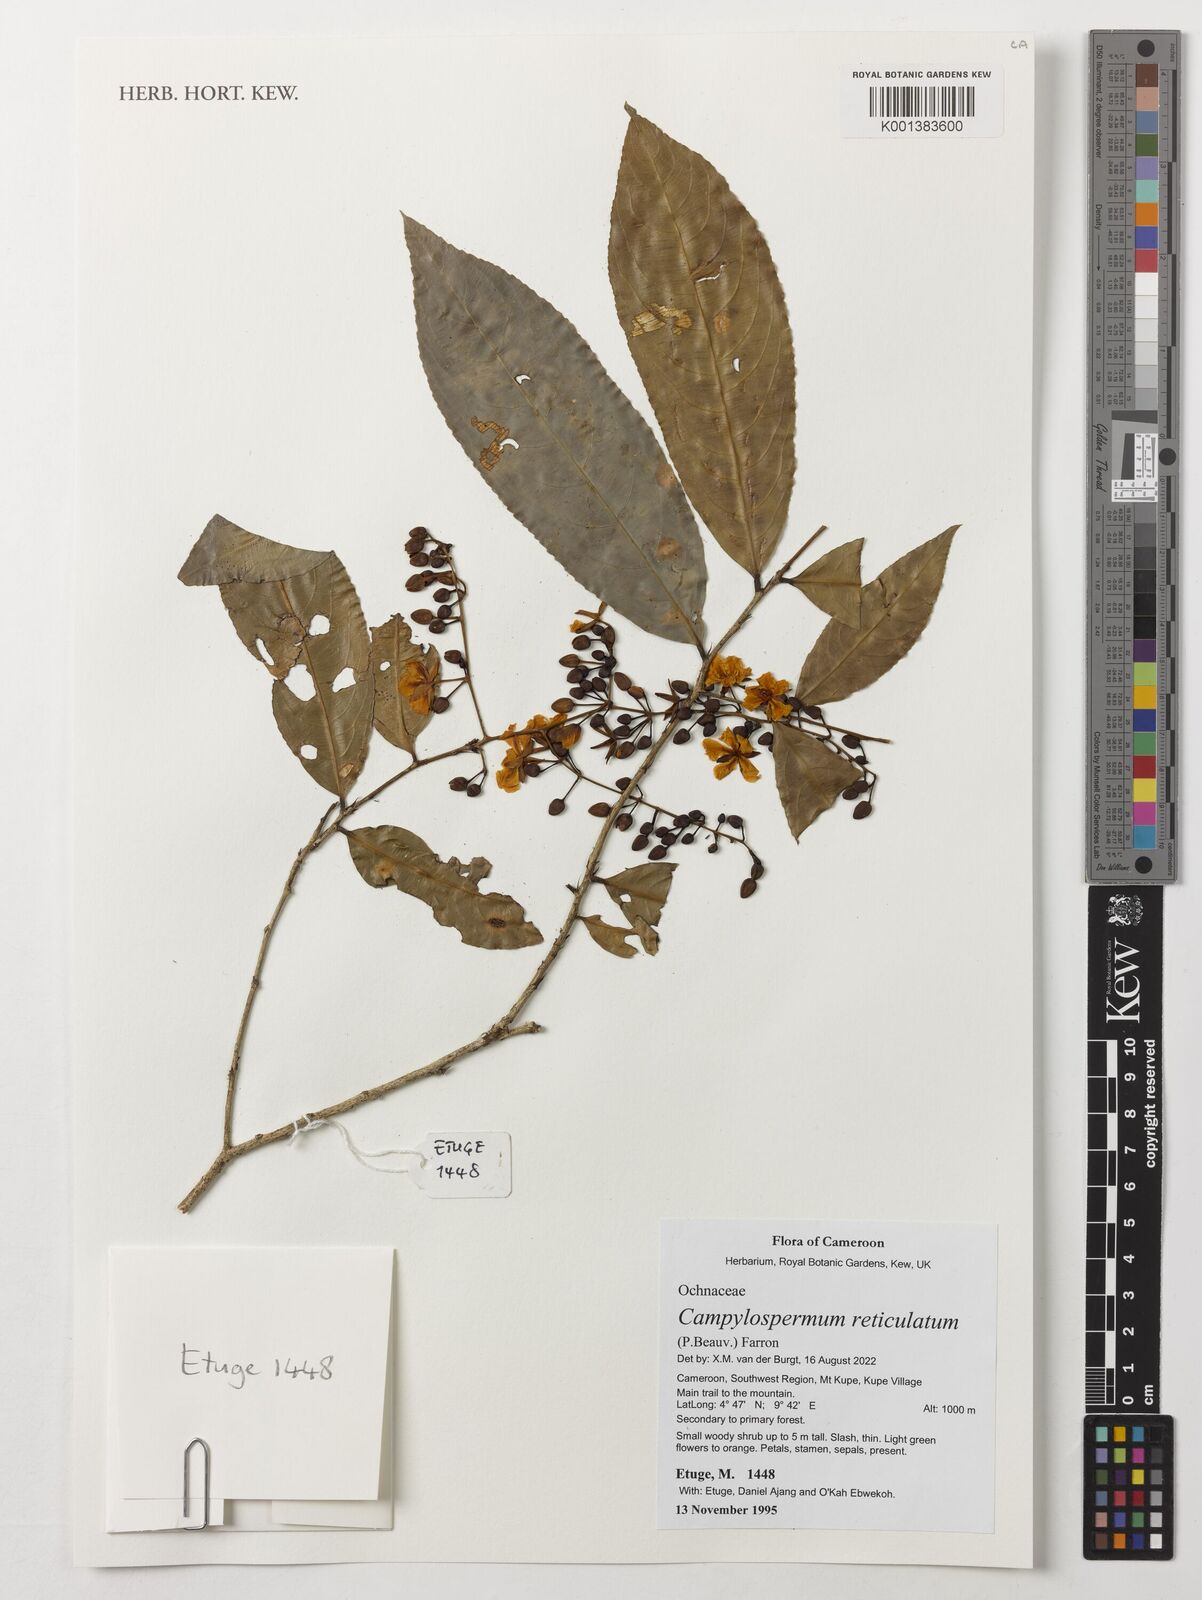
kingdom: Plantae
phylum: Tracheophyta
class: Magnoliopsida
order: Malpighiales
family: Ochnaceae
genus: Campylospermum
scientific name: Campylospermum reticulatum
